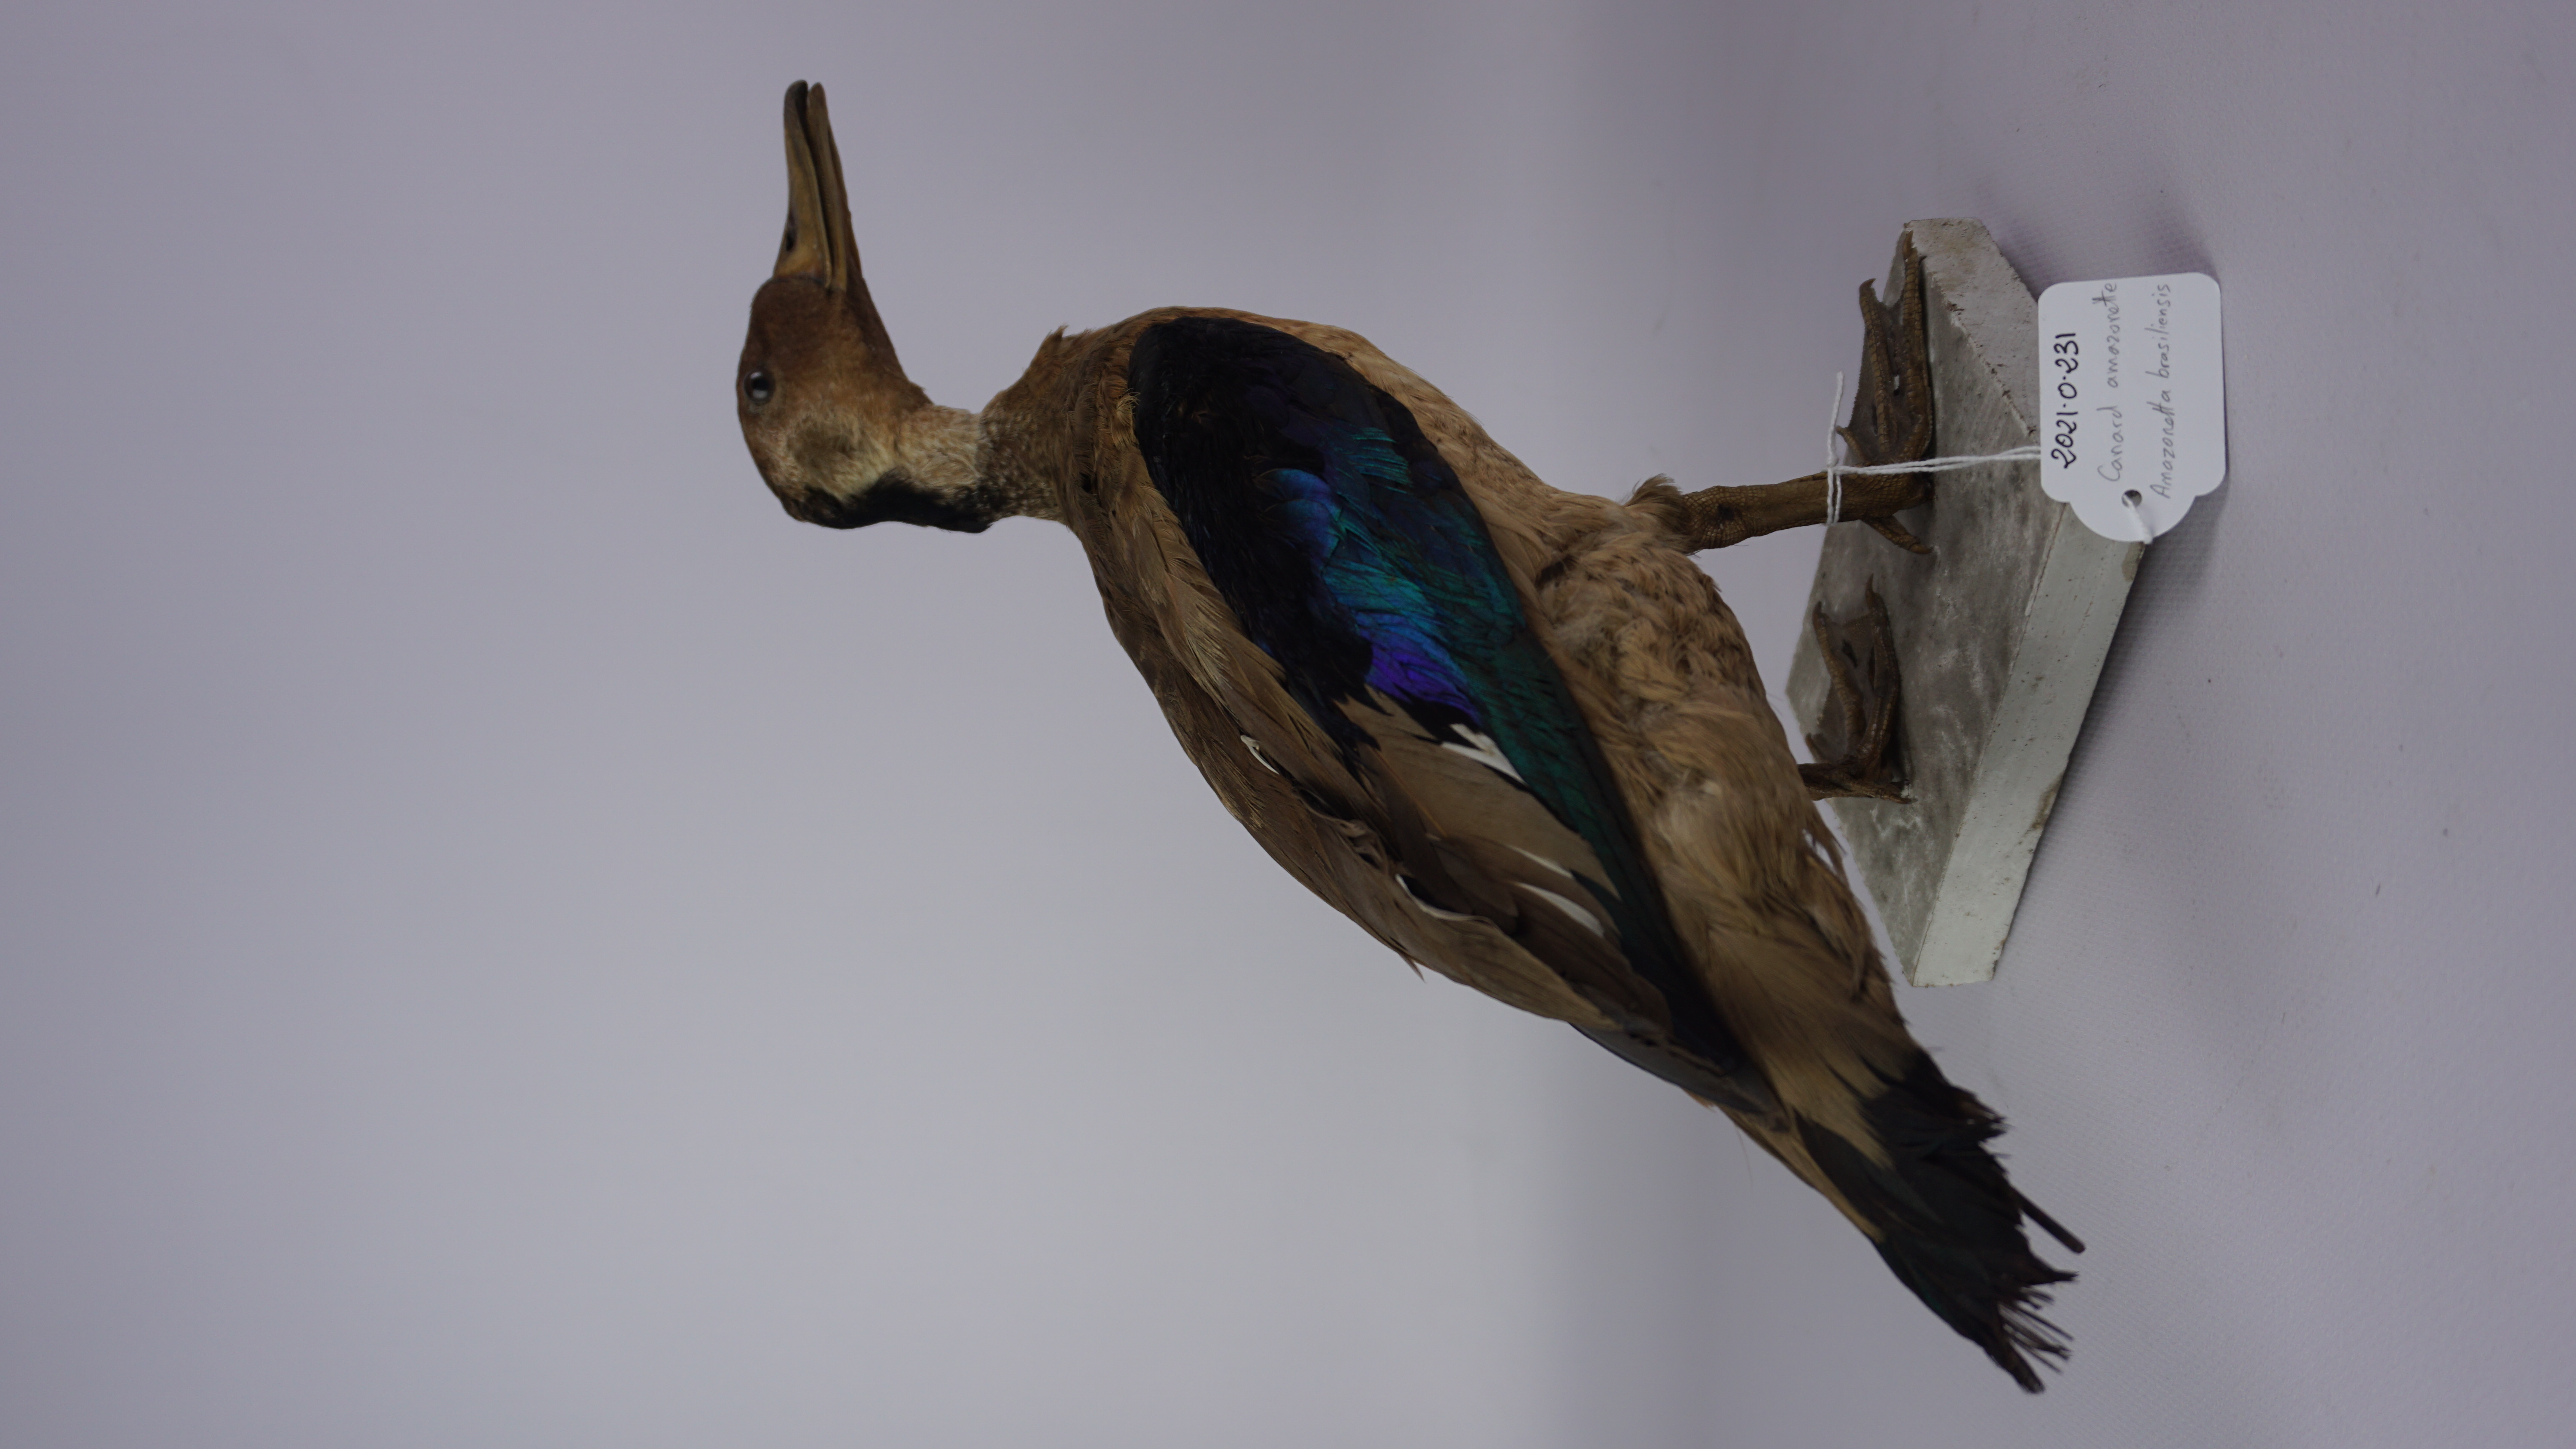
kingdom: Animalia
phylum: Chordata
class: Aves
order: Anseriformes
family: Anatidae
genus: Amazonetta
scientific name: Amazonetta brasiliensis
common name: Brazilian teal
